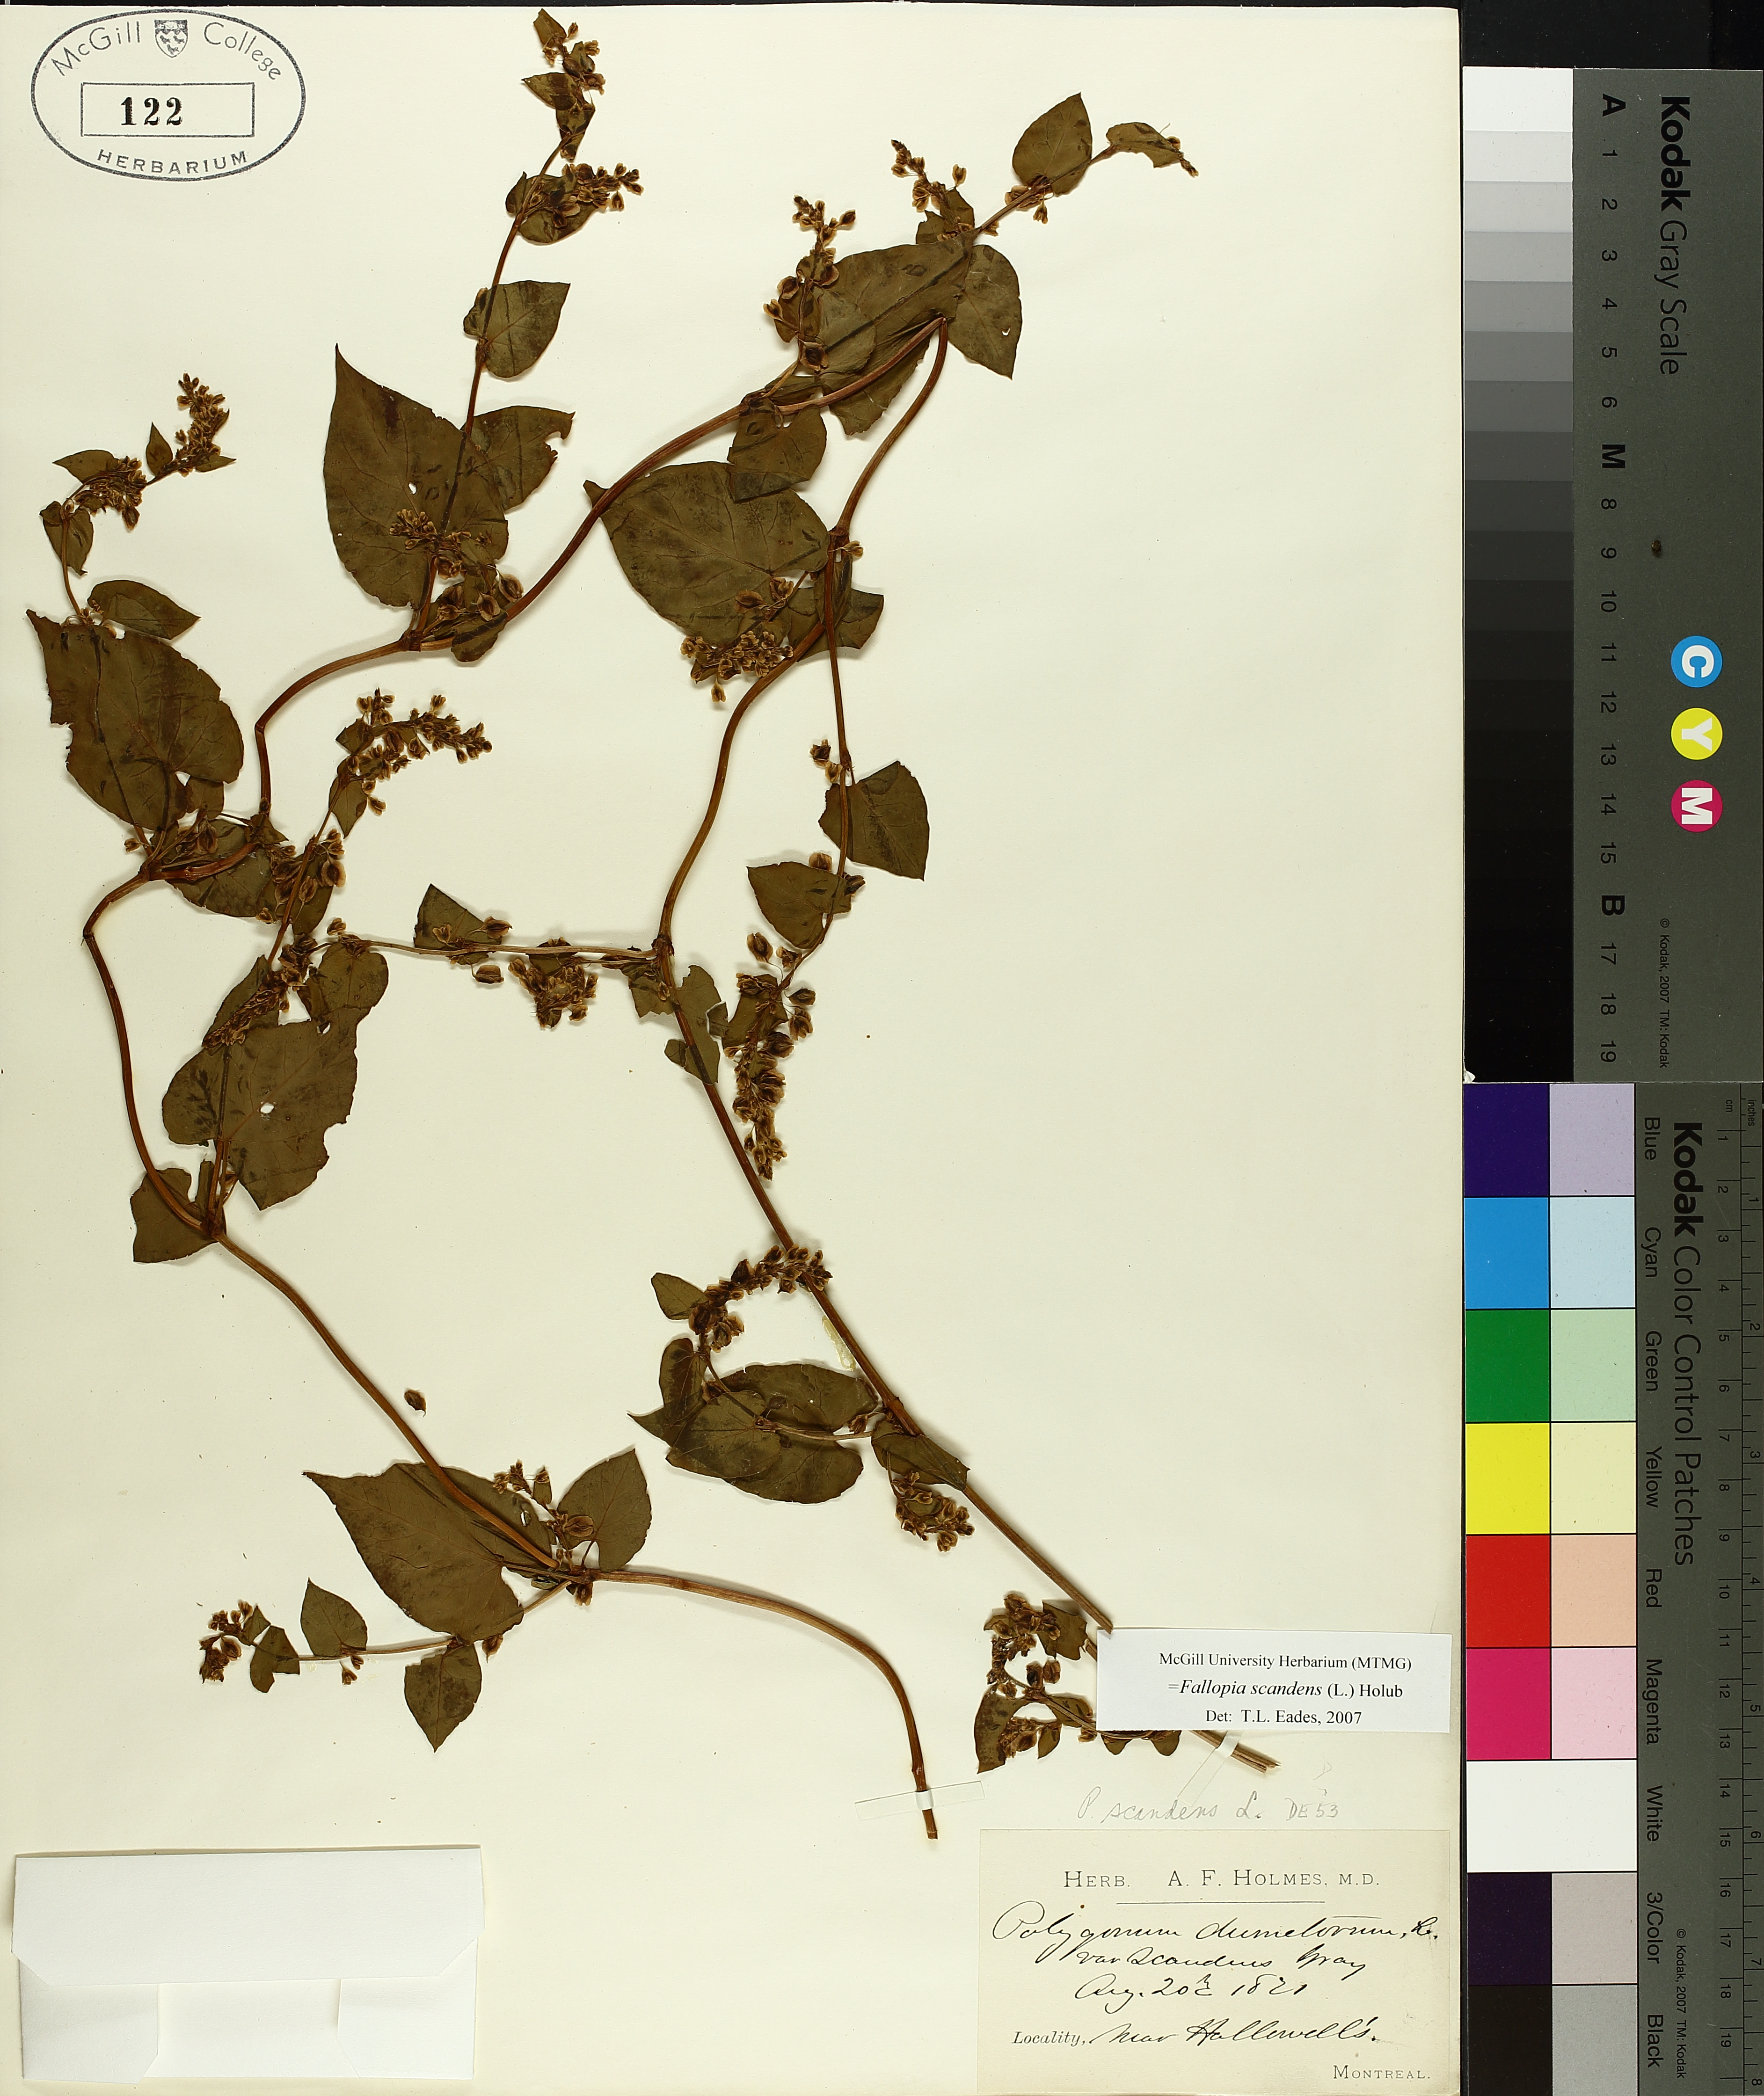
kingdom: Plantae
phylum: Tracheophyta
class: Magnoliopsida
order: Caryophyllales
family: Polygonaceae
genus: Fallopia
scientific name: Fallopia scandens
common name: Climbing false buckwheat
